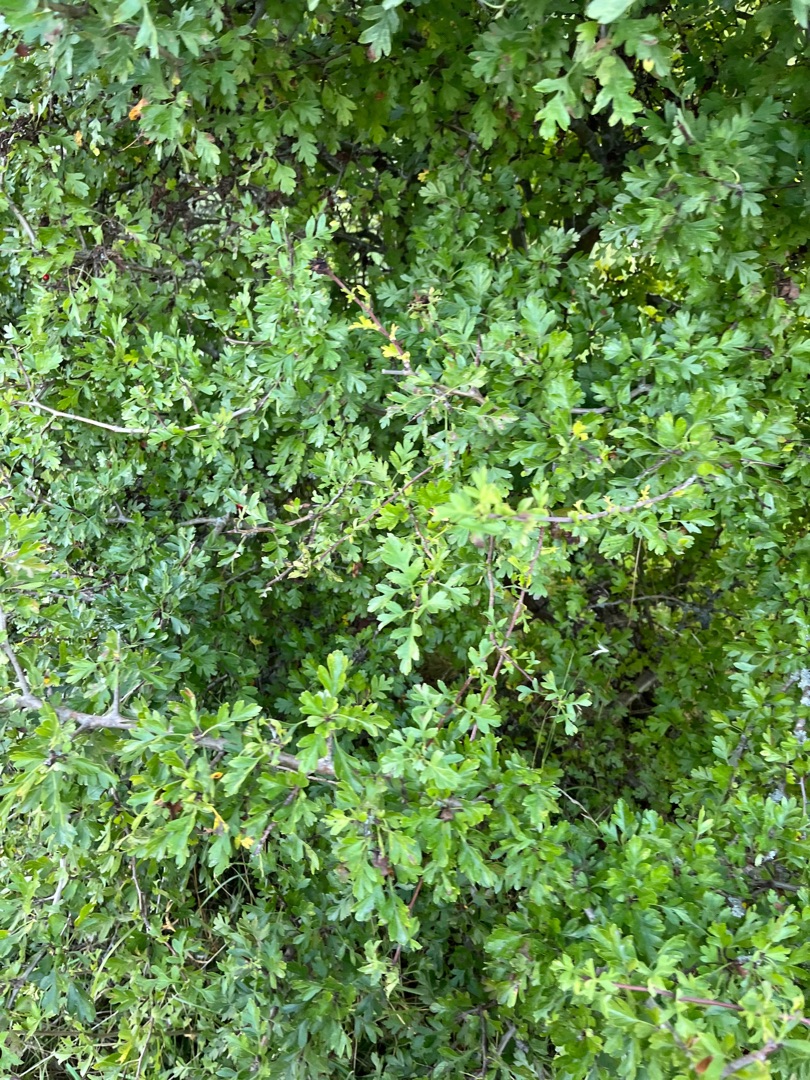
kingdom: Plantae
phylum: Tracheophyta
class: Magnoliopsida
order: Rosales
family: Rosaceae
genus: Crataegus
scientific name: Crataegus monogyna
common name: Engriflet hvidtjørn
